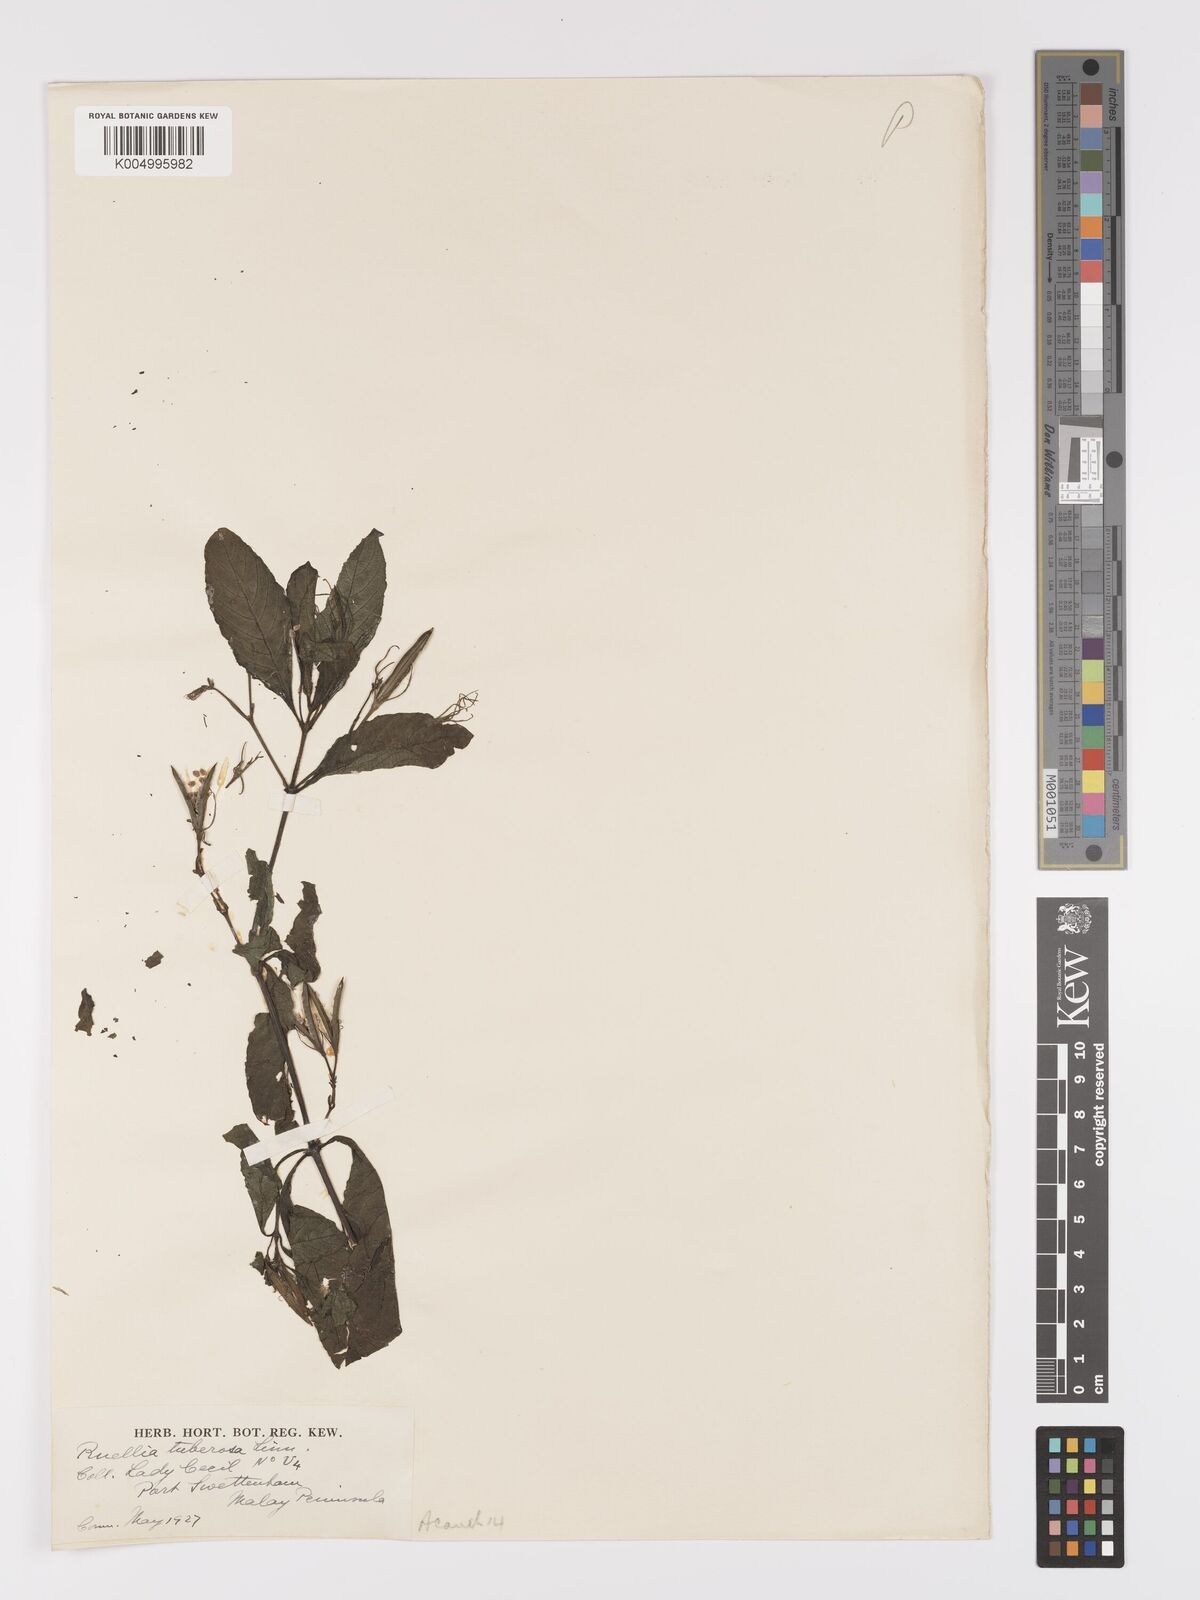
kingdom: Plantae
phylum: Tracheophyta
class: Magnoliopsida
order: Lamiales
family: Acanthaceae
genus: Ruellia
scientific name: Ruellia tuberosa
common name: Devil's bit
